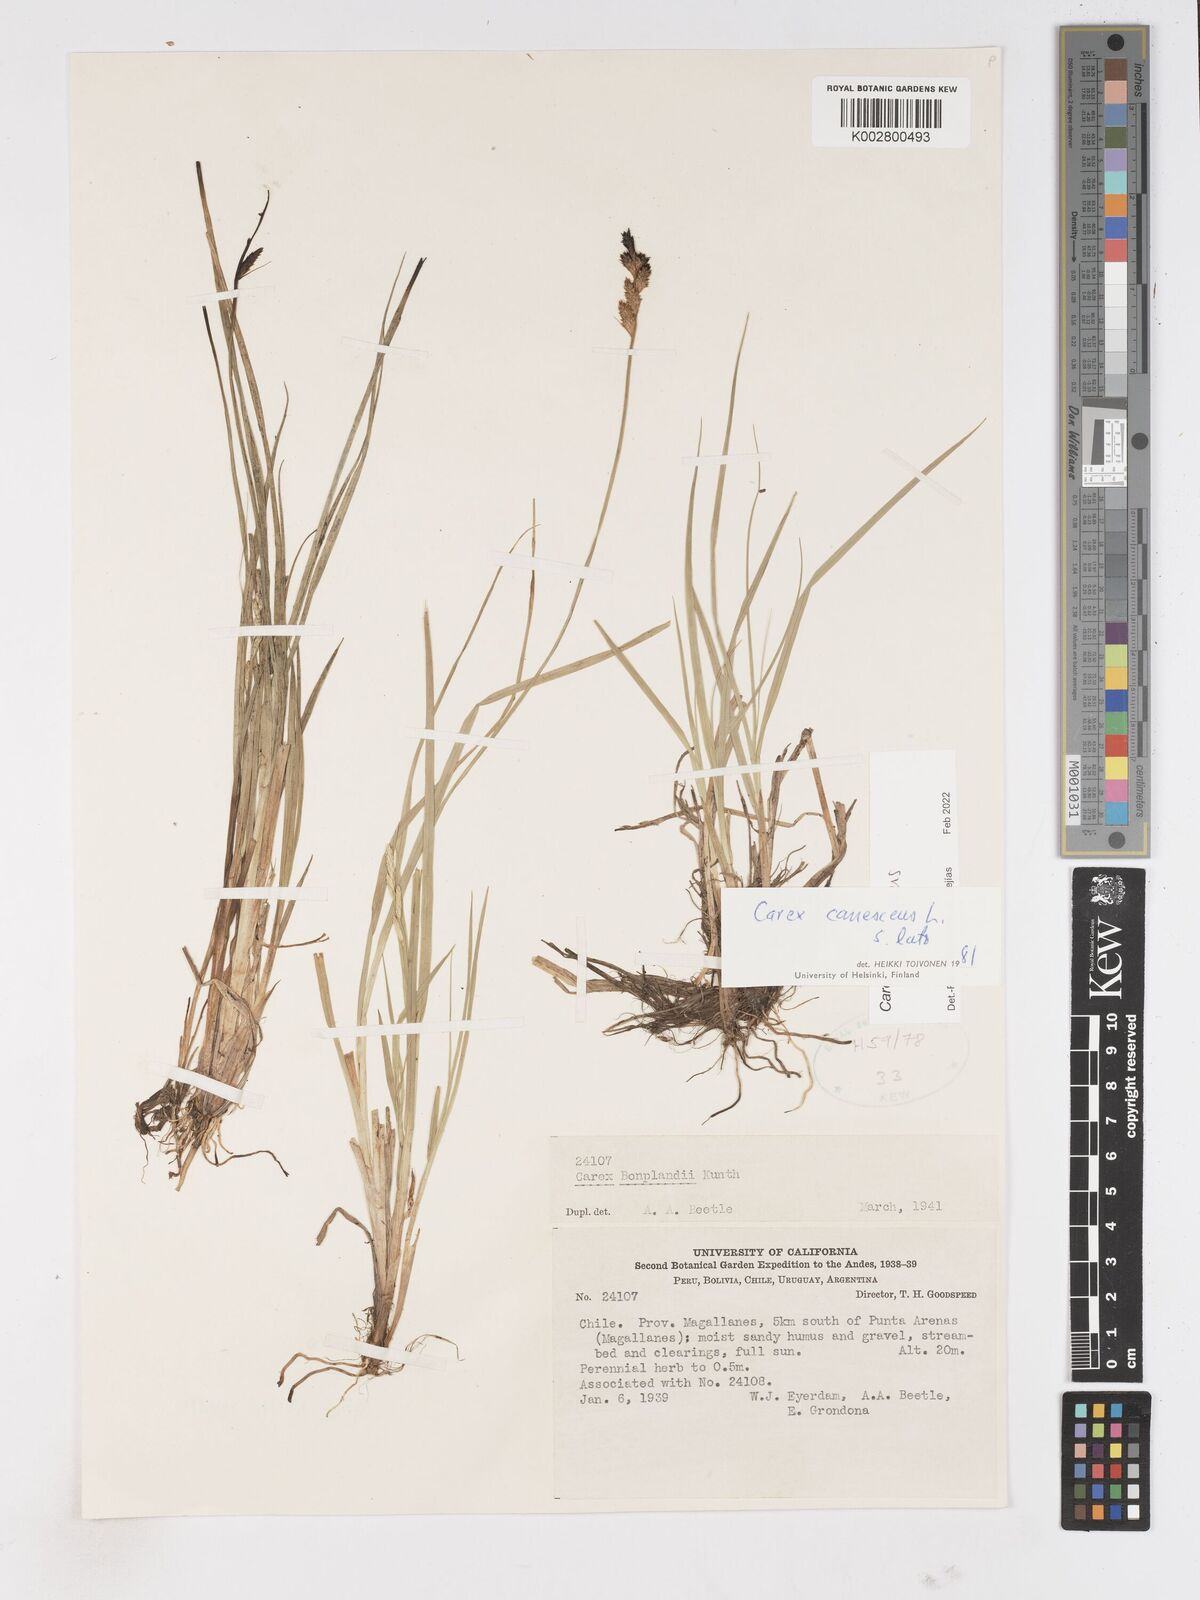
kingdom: Plantae
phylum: Tracheophyta
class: Liliopsida
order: Poales
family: Cyperaceae
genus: Carex
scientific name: Carex curta
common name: White sedge
